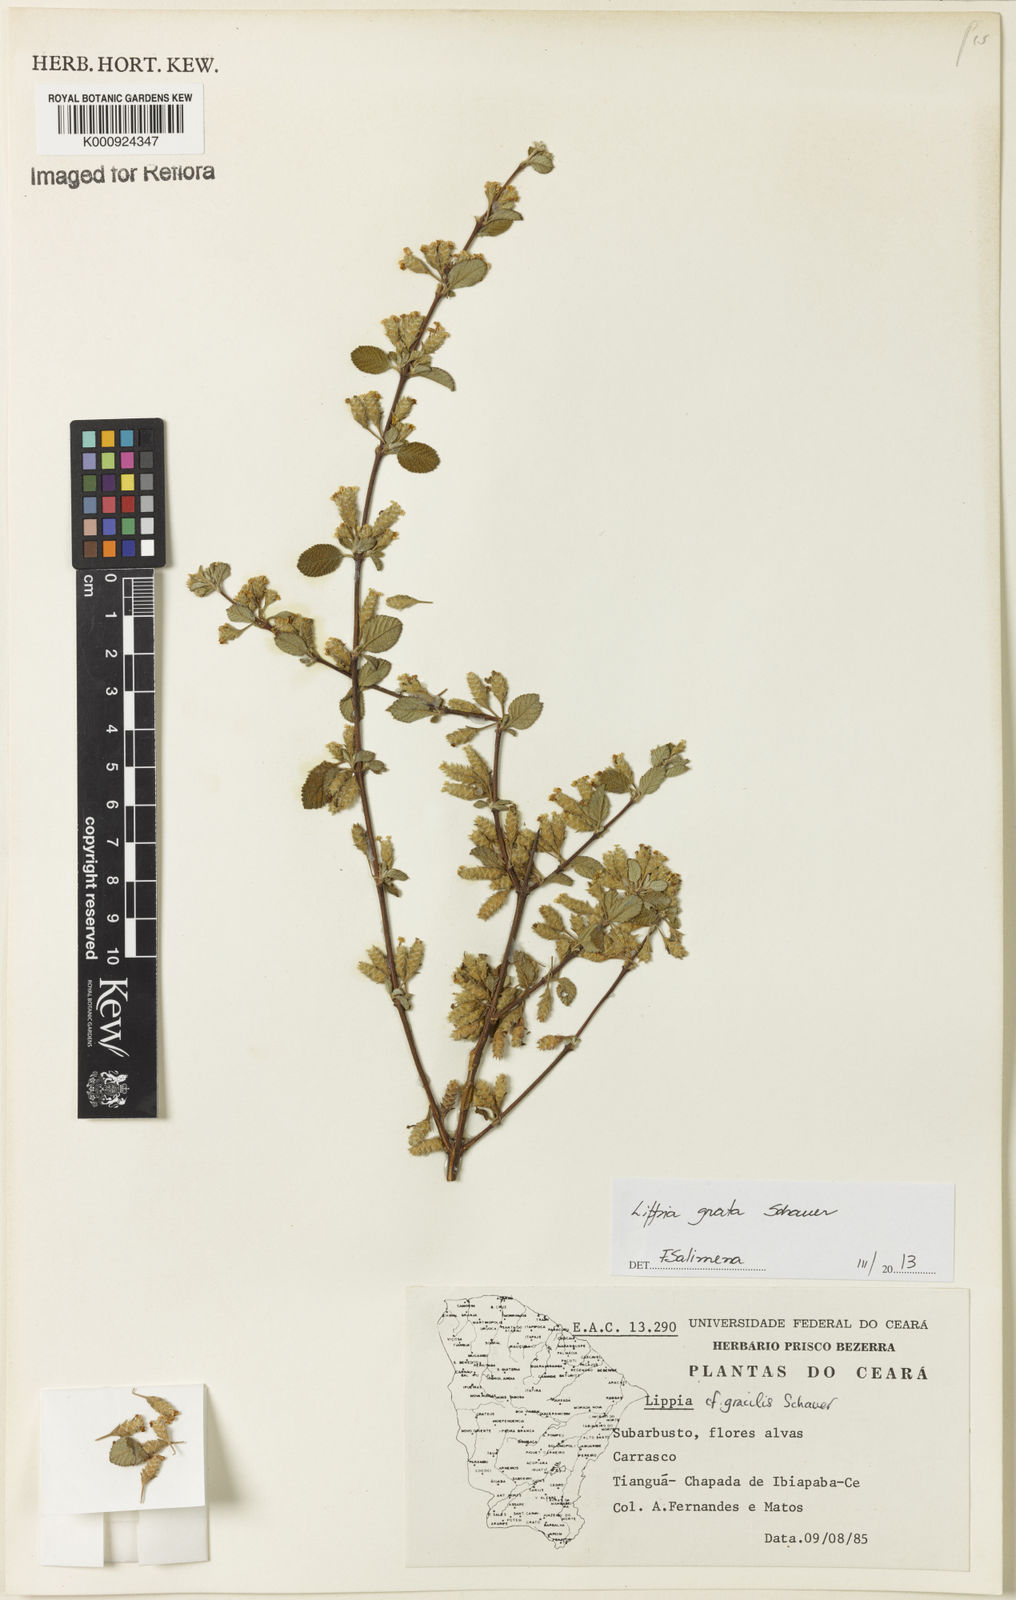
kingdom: Plantae
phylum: Tracheophyta
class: Magnoliopsida
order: Lamiales
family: Verbenaceae
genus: Lippia
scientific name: Lippia grata
